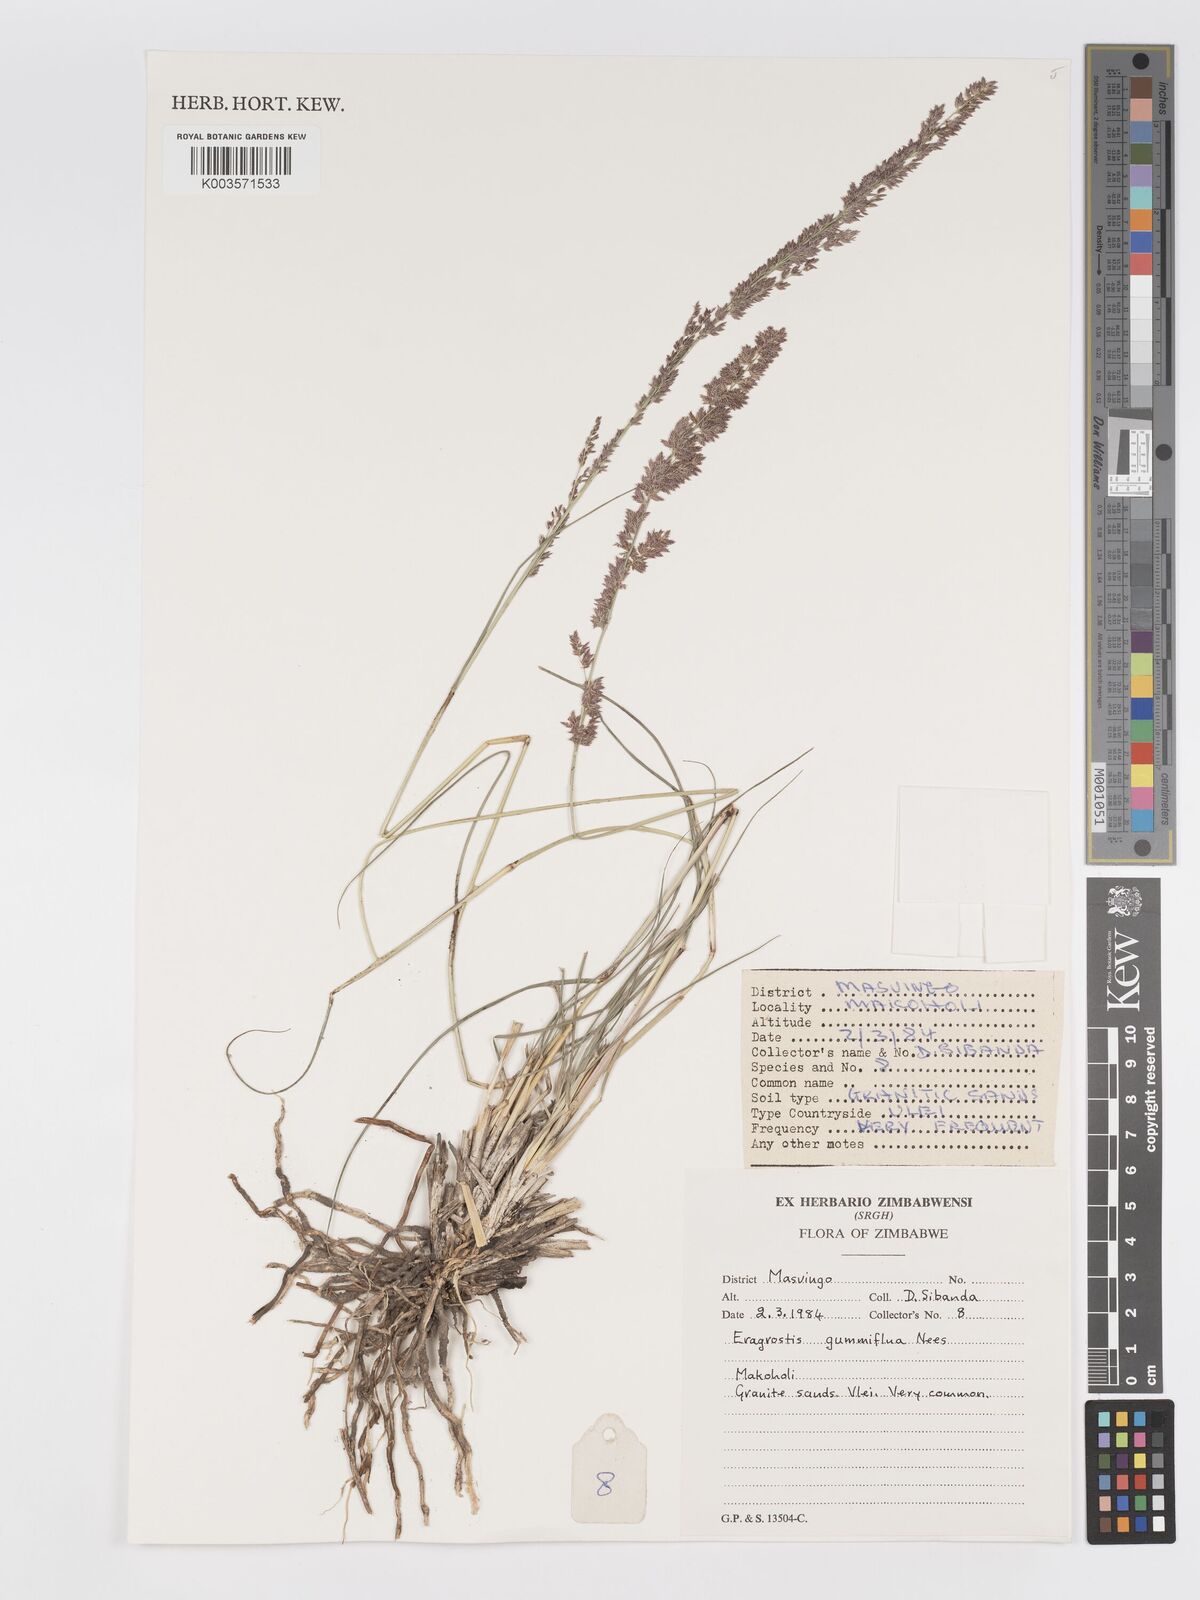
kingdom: Plantae
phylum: Tracheophyta
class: Liliopsida
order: Poales
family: Poaceae
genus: Eragrostis
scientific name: Eragrostis gummiflua
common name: Gum grass
